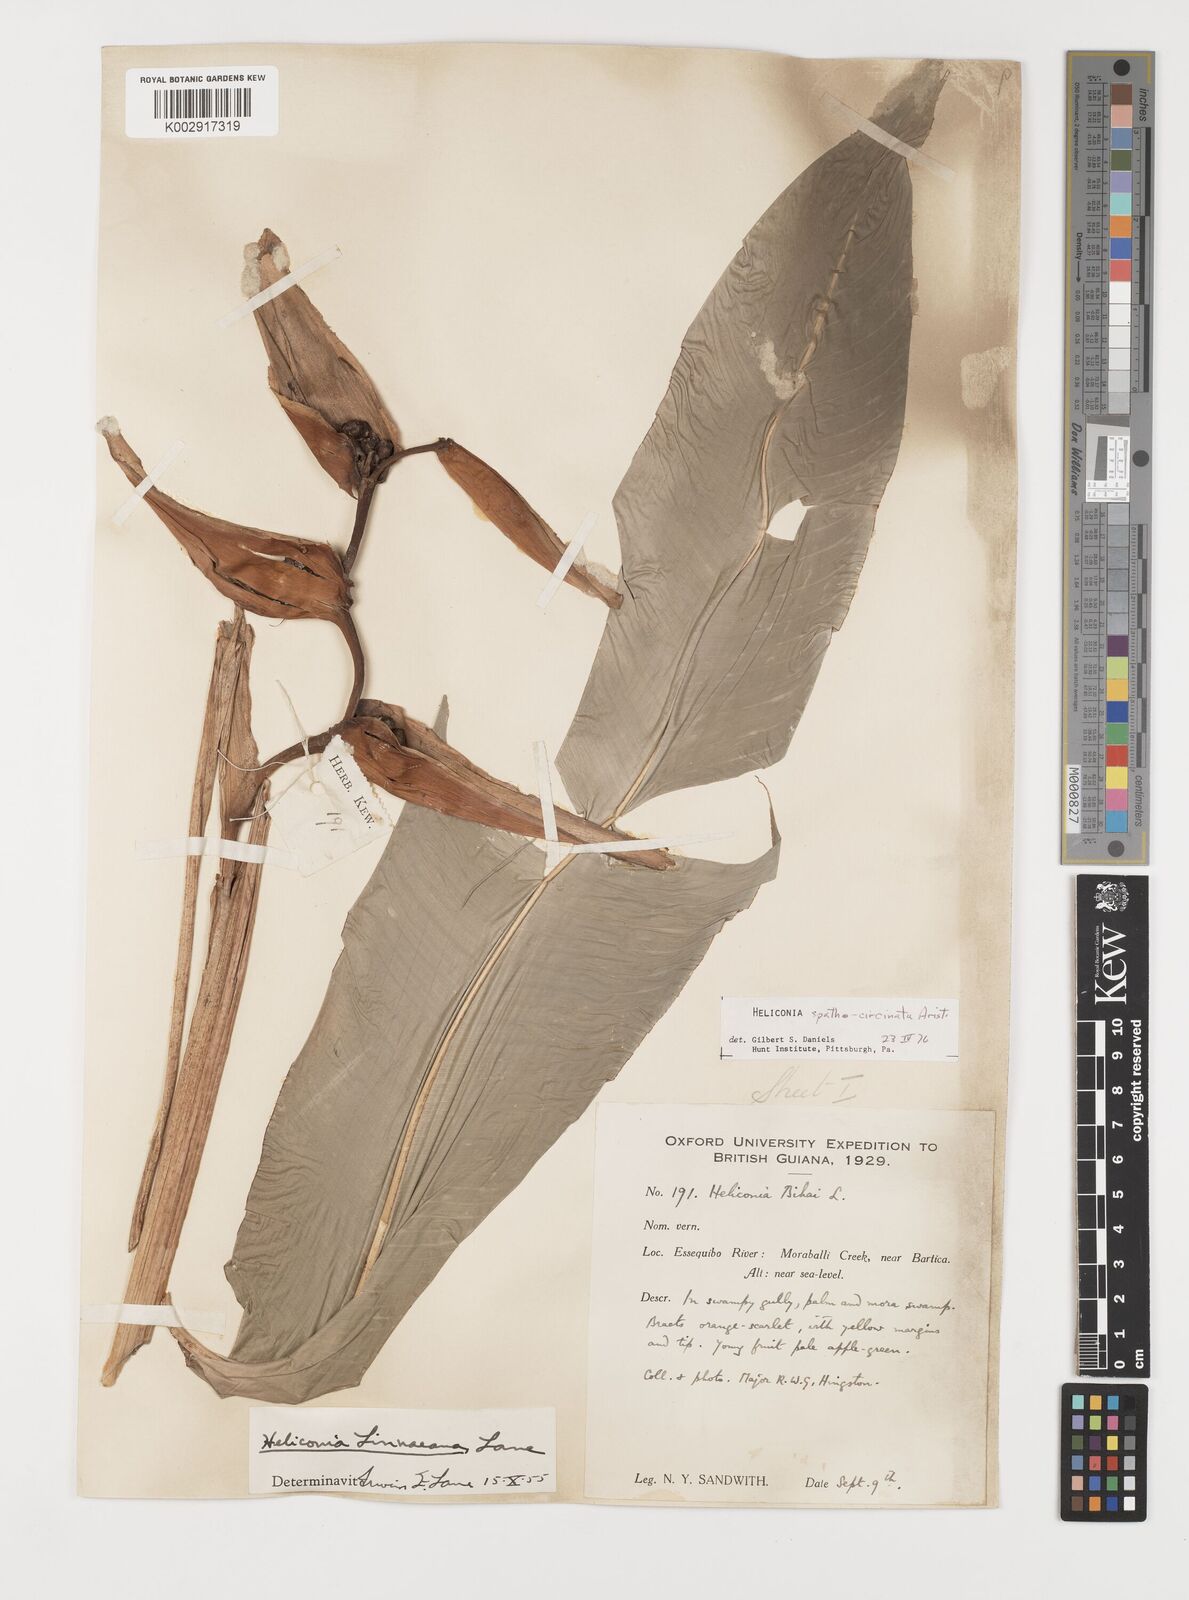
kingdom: Plantae
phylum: Tracheophyta
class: Liliopsida
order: Zingiberales
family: Heliconiaceae
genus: Heliconia
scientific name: Heliconia spathocircinata
